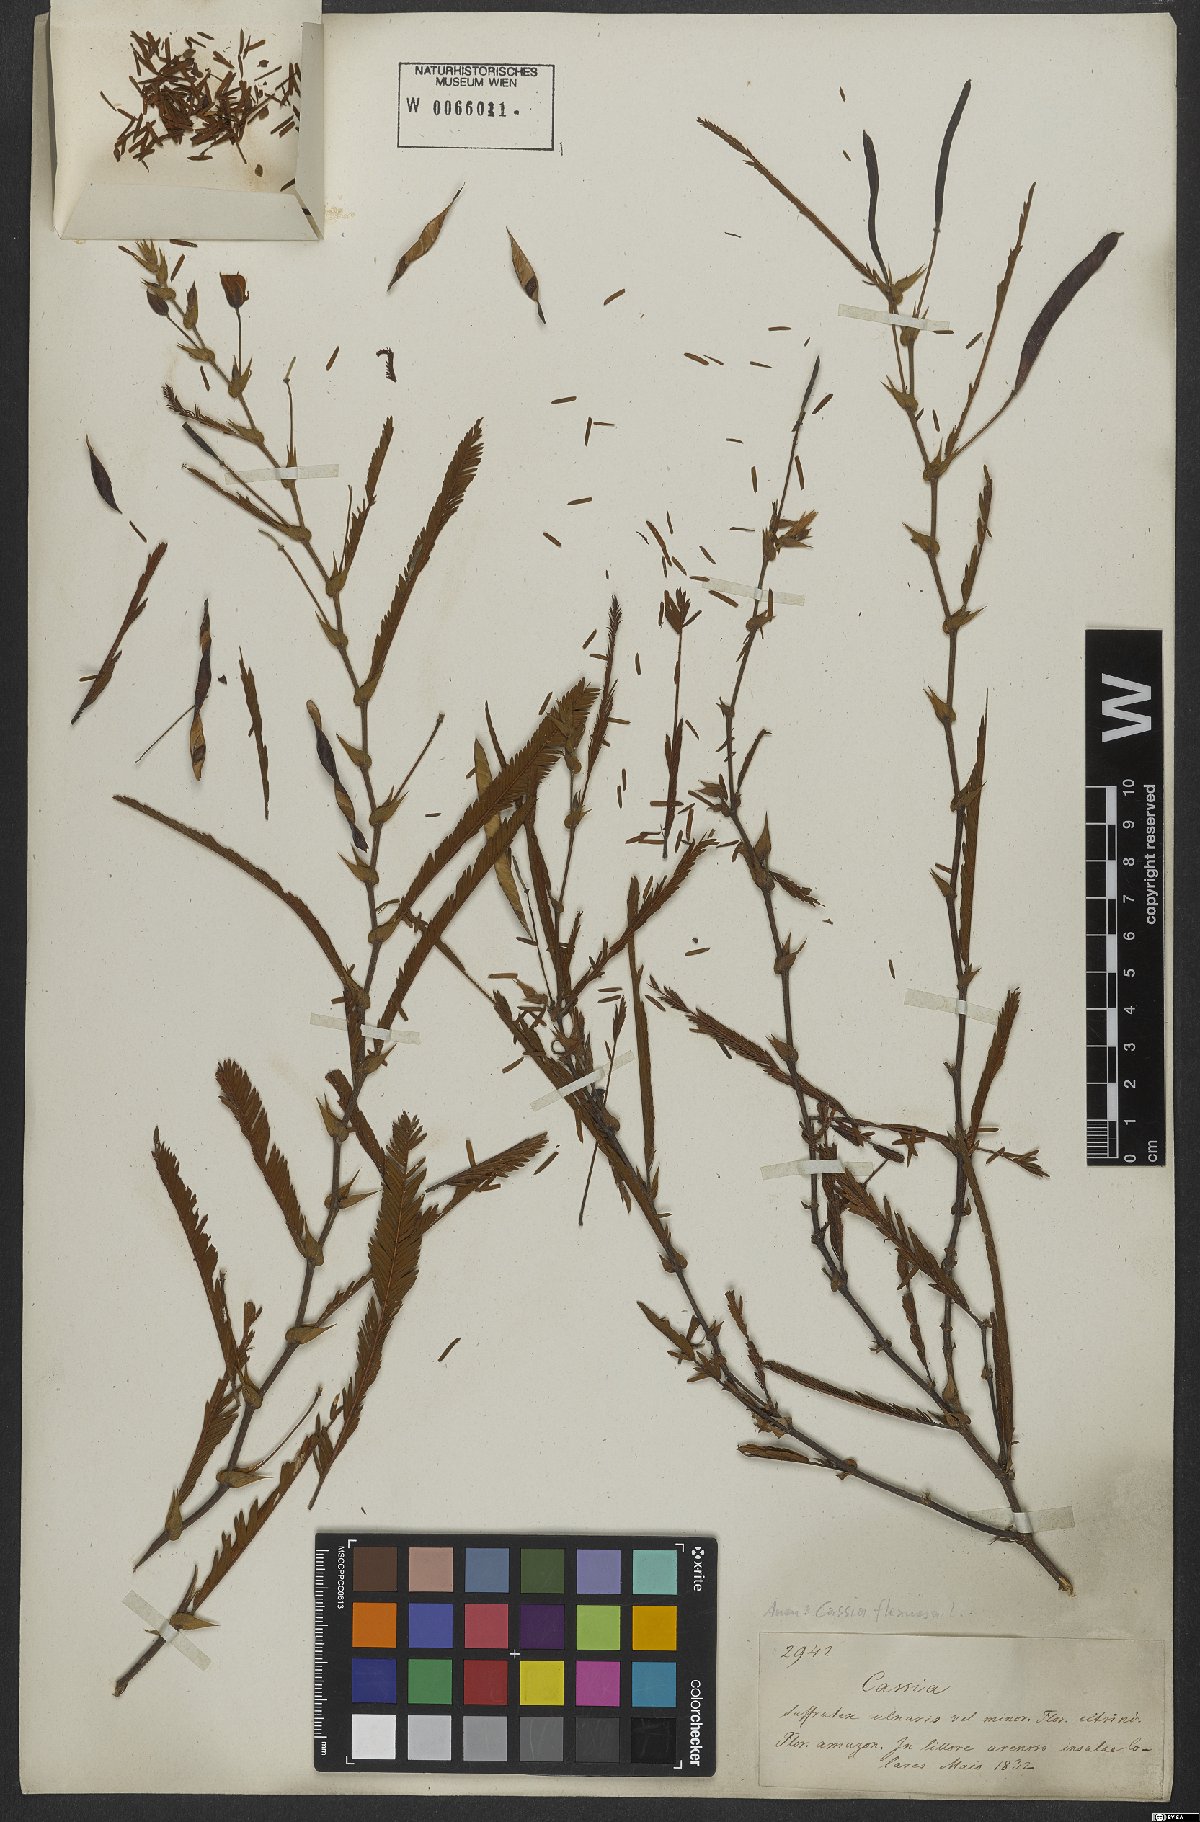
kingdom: Plantae
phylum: Tracheophyta
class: Magnoliopsida
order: Fabales
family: Fabaceae
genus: Chamaecrista
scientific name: Chamaecrista flexuosa
